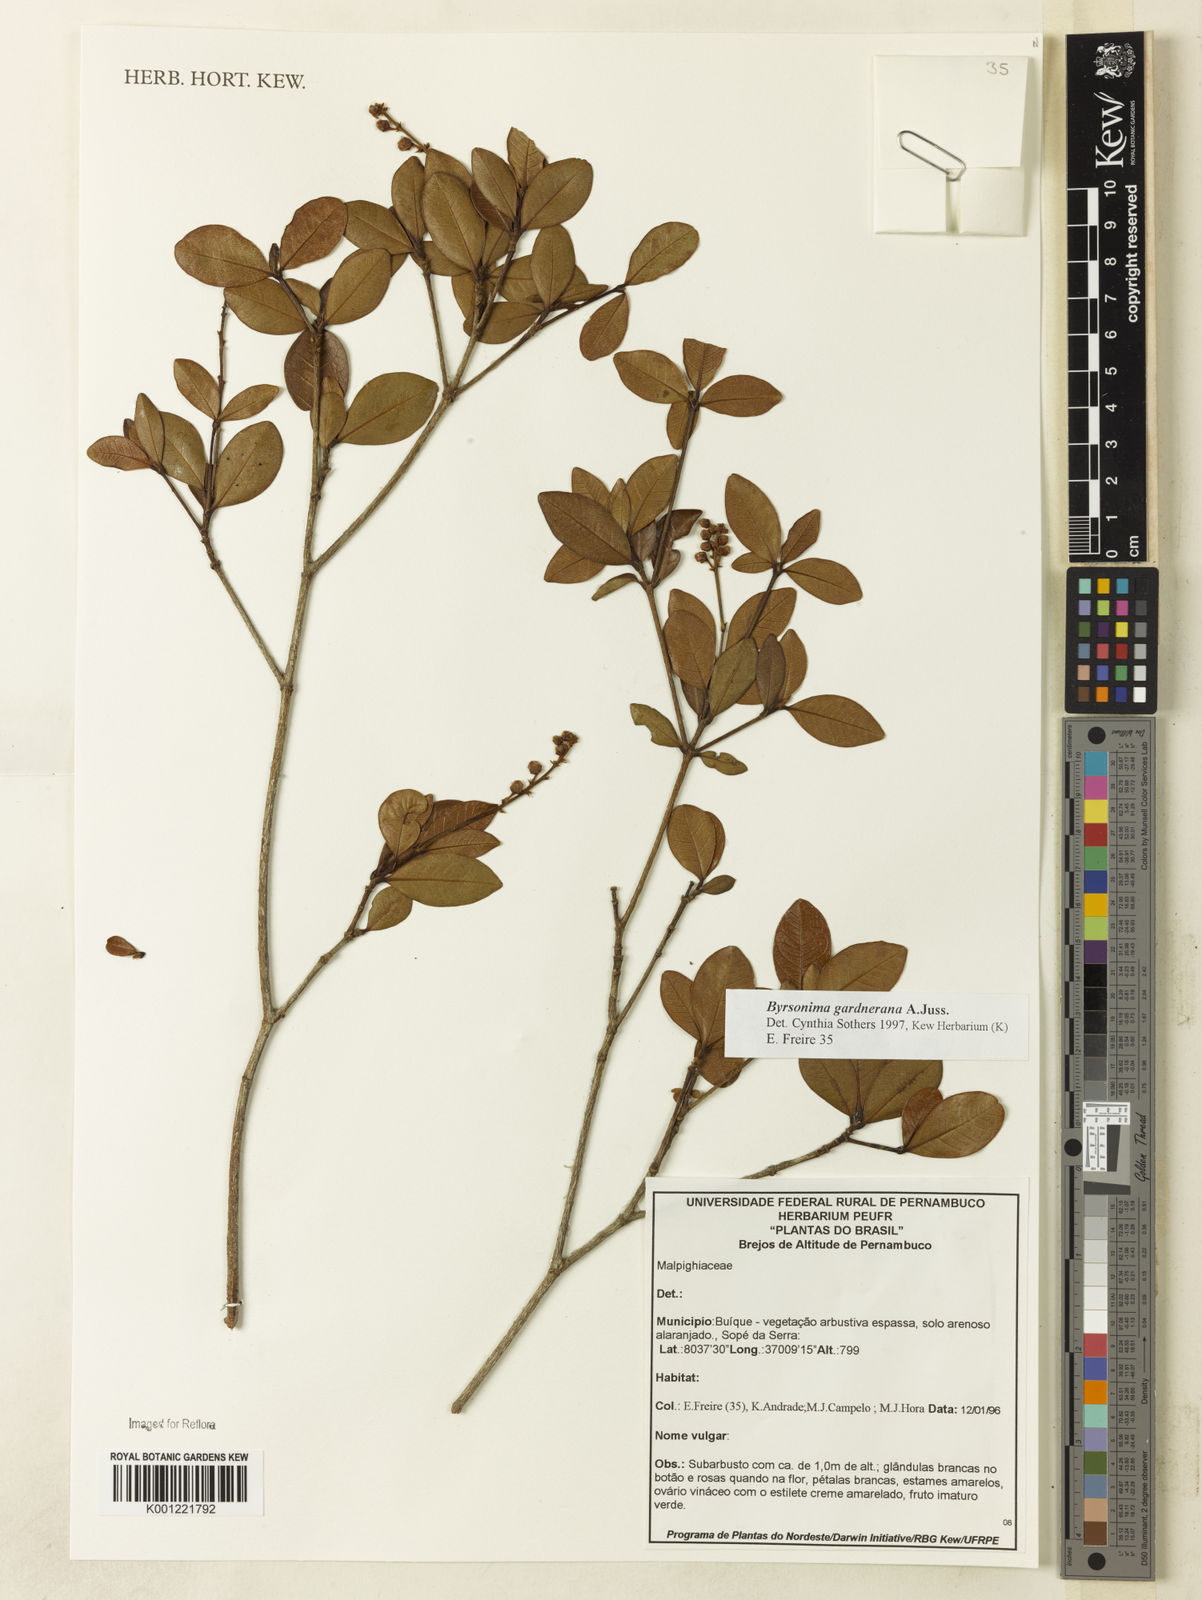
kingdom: Plantae
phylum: Tracheophyta
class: Magnoliopsida
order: Malpighiales
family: Malpighiaceae
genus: Byrsonima
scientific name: Byrsonima gardneriana
